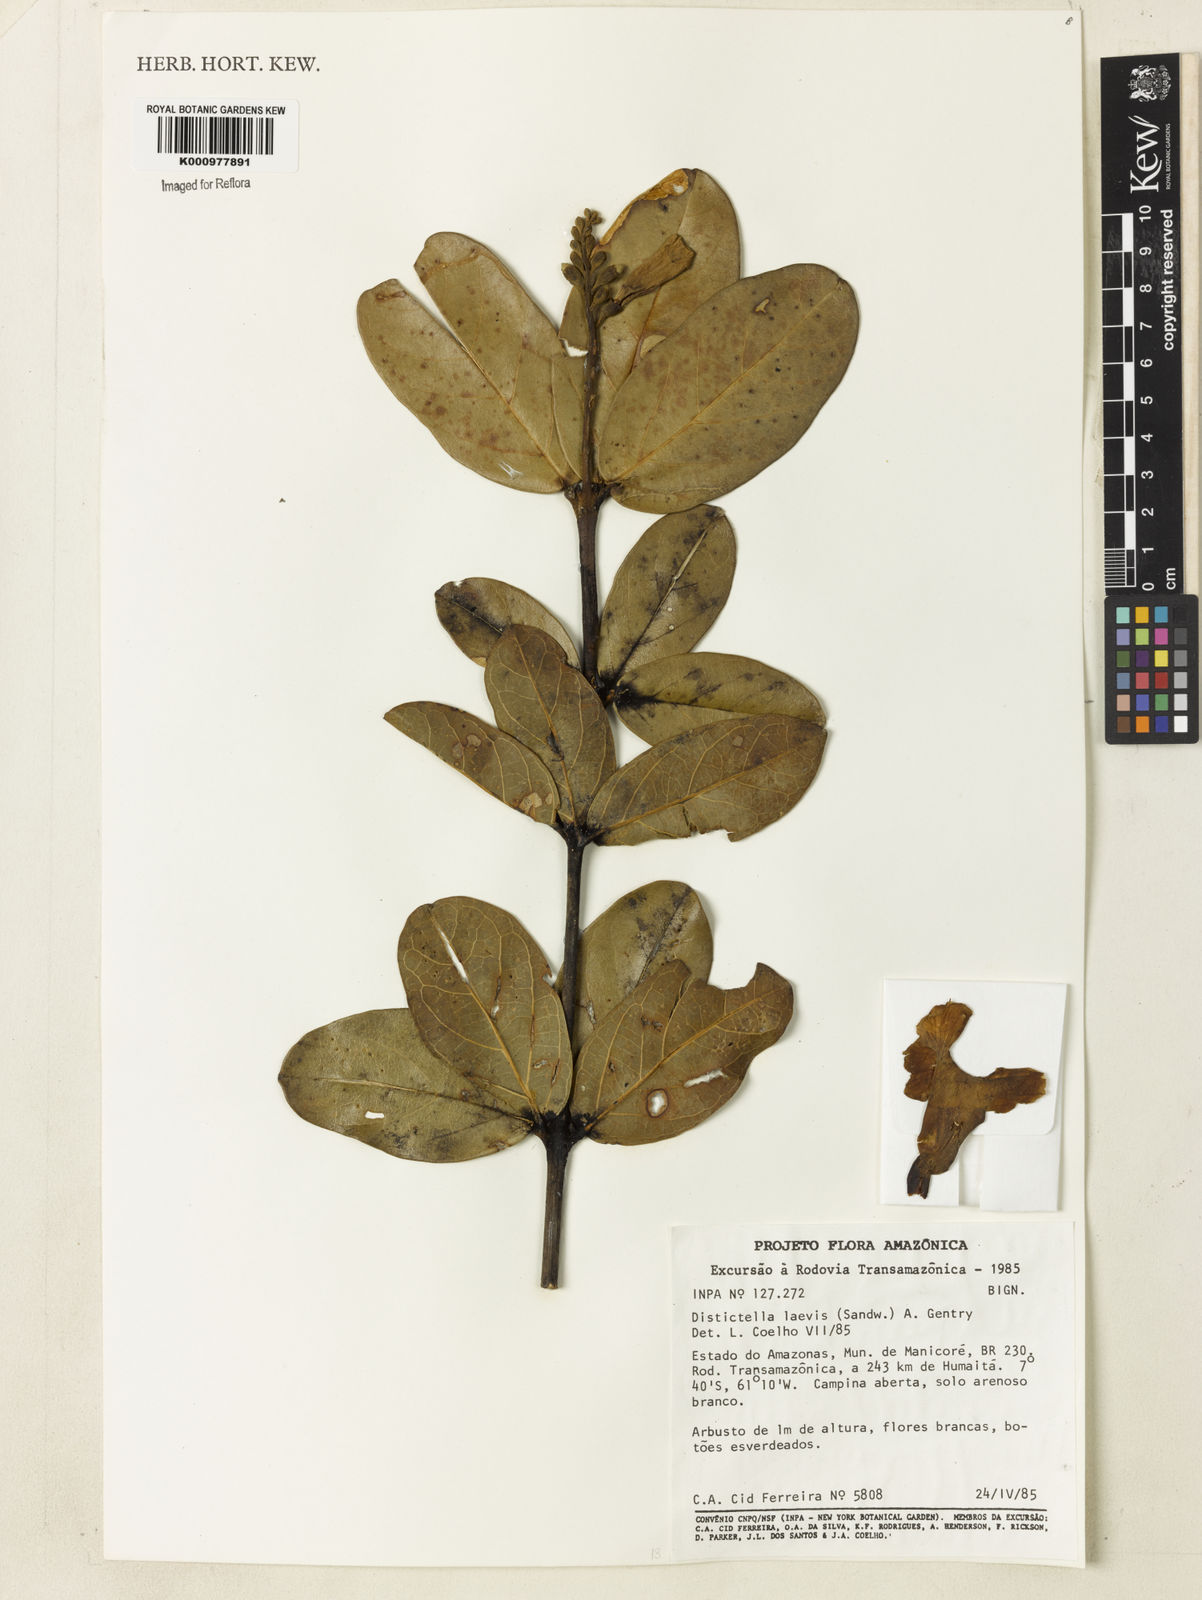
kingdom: Plantae
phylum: Tracheophyta
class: Magnoliopsida
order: Lamiales
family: Bignoniaceae
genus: Amphilophium
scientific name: Amphilophium laevis
